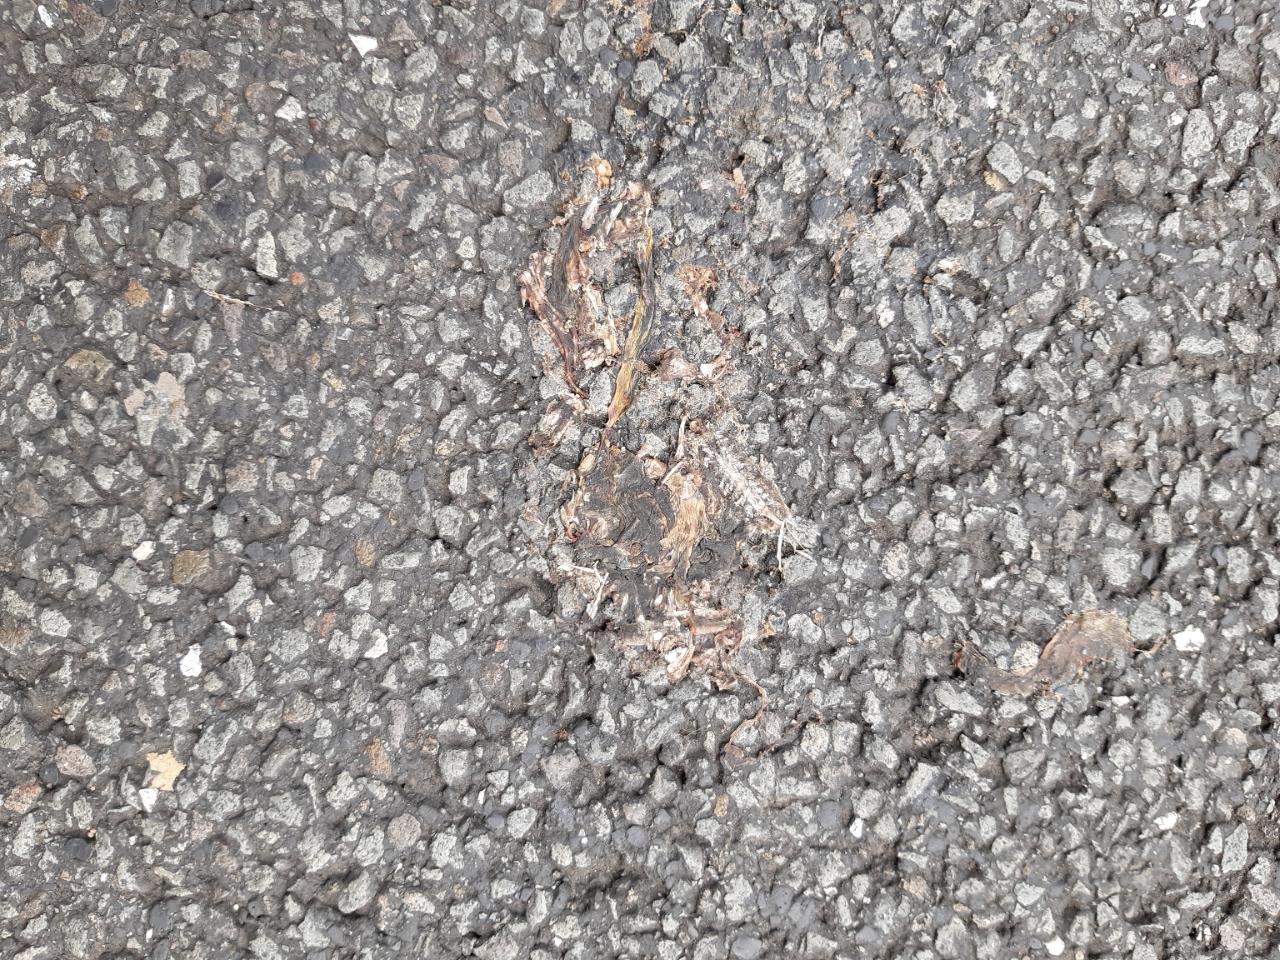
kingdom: Animalia
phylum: Chordata
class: Amphibia
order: Anura
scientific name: Anura
